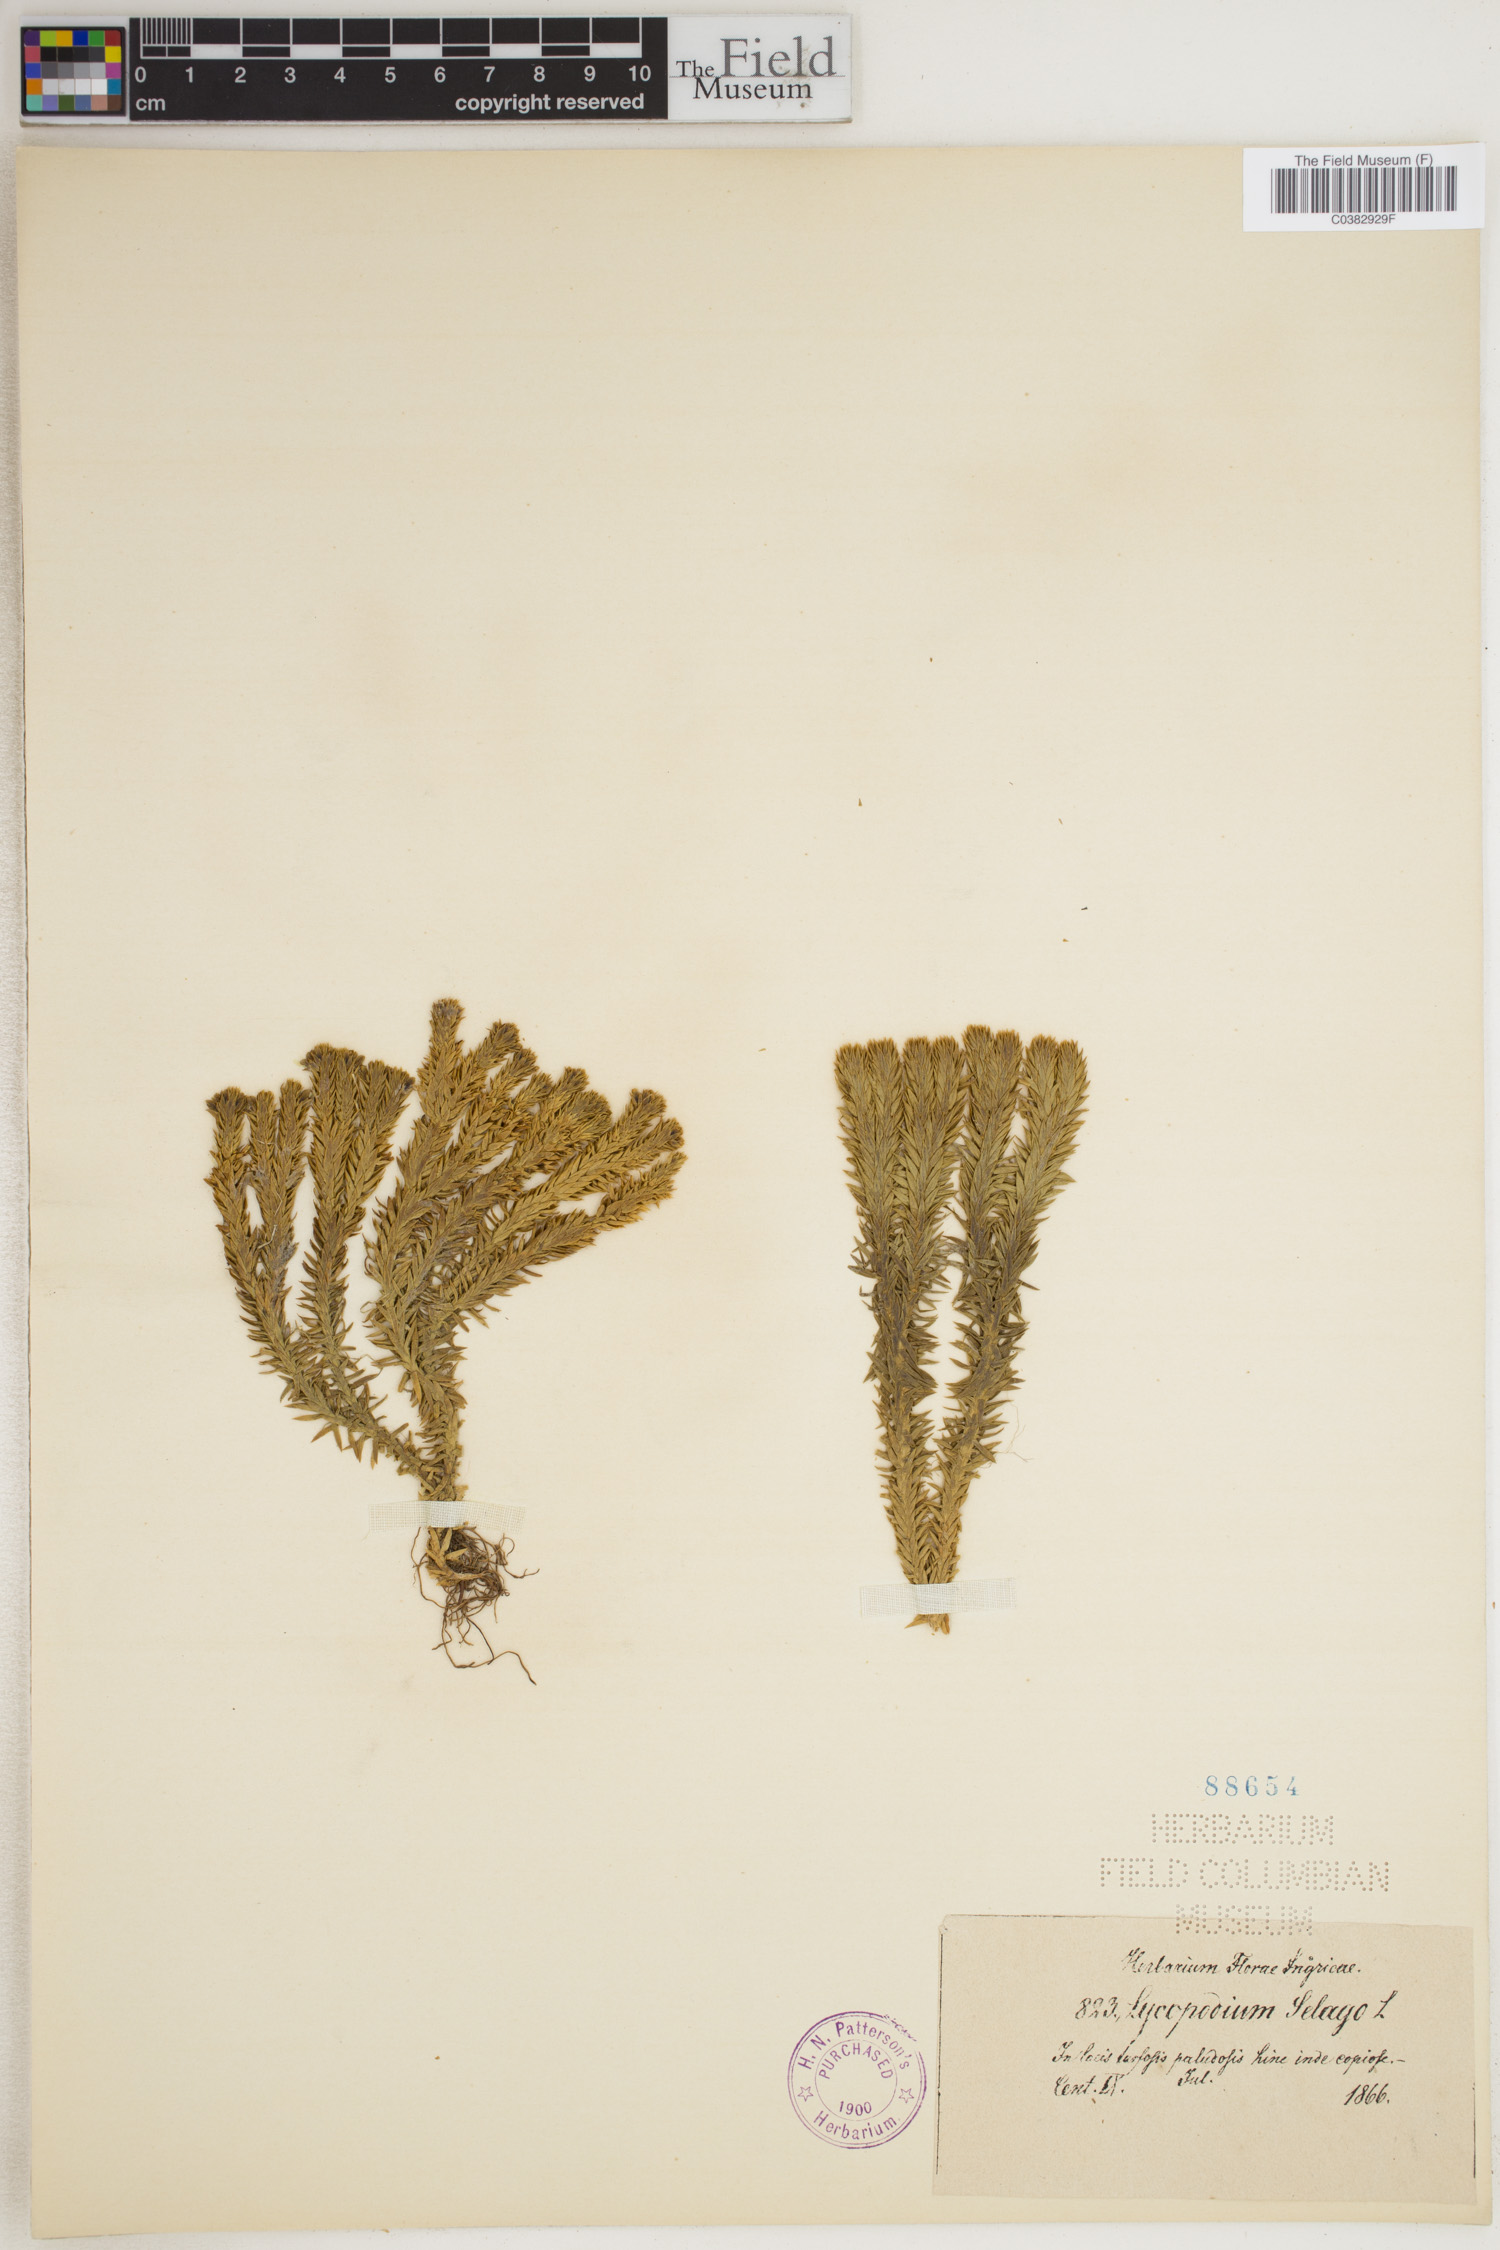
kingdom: Plantae
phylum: Tracheophyta
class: Lycopodiopsida
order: Lycopodiales
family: Lycopodiaceae
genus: Huperzia
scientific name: Huperzia selago
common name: Northern firmoss
